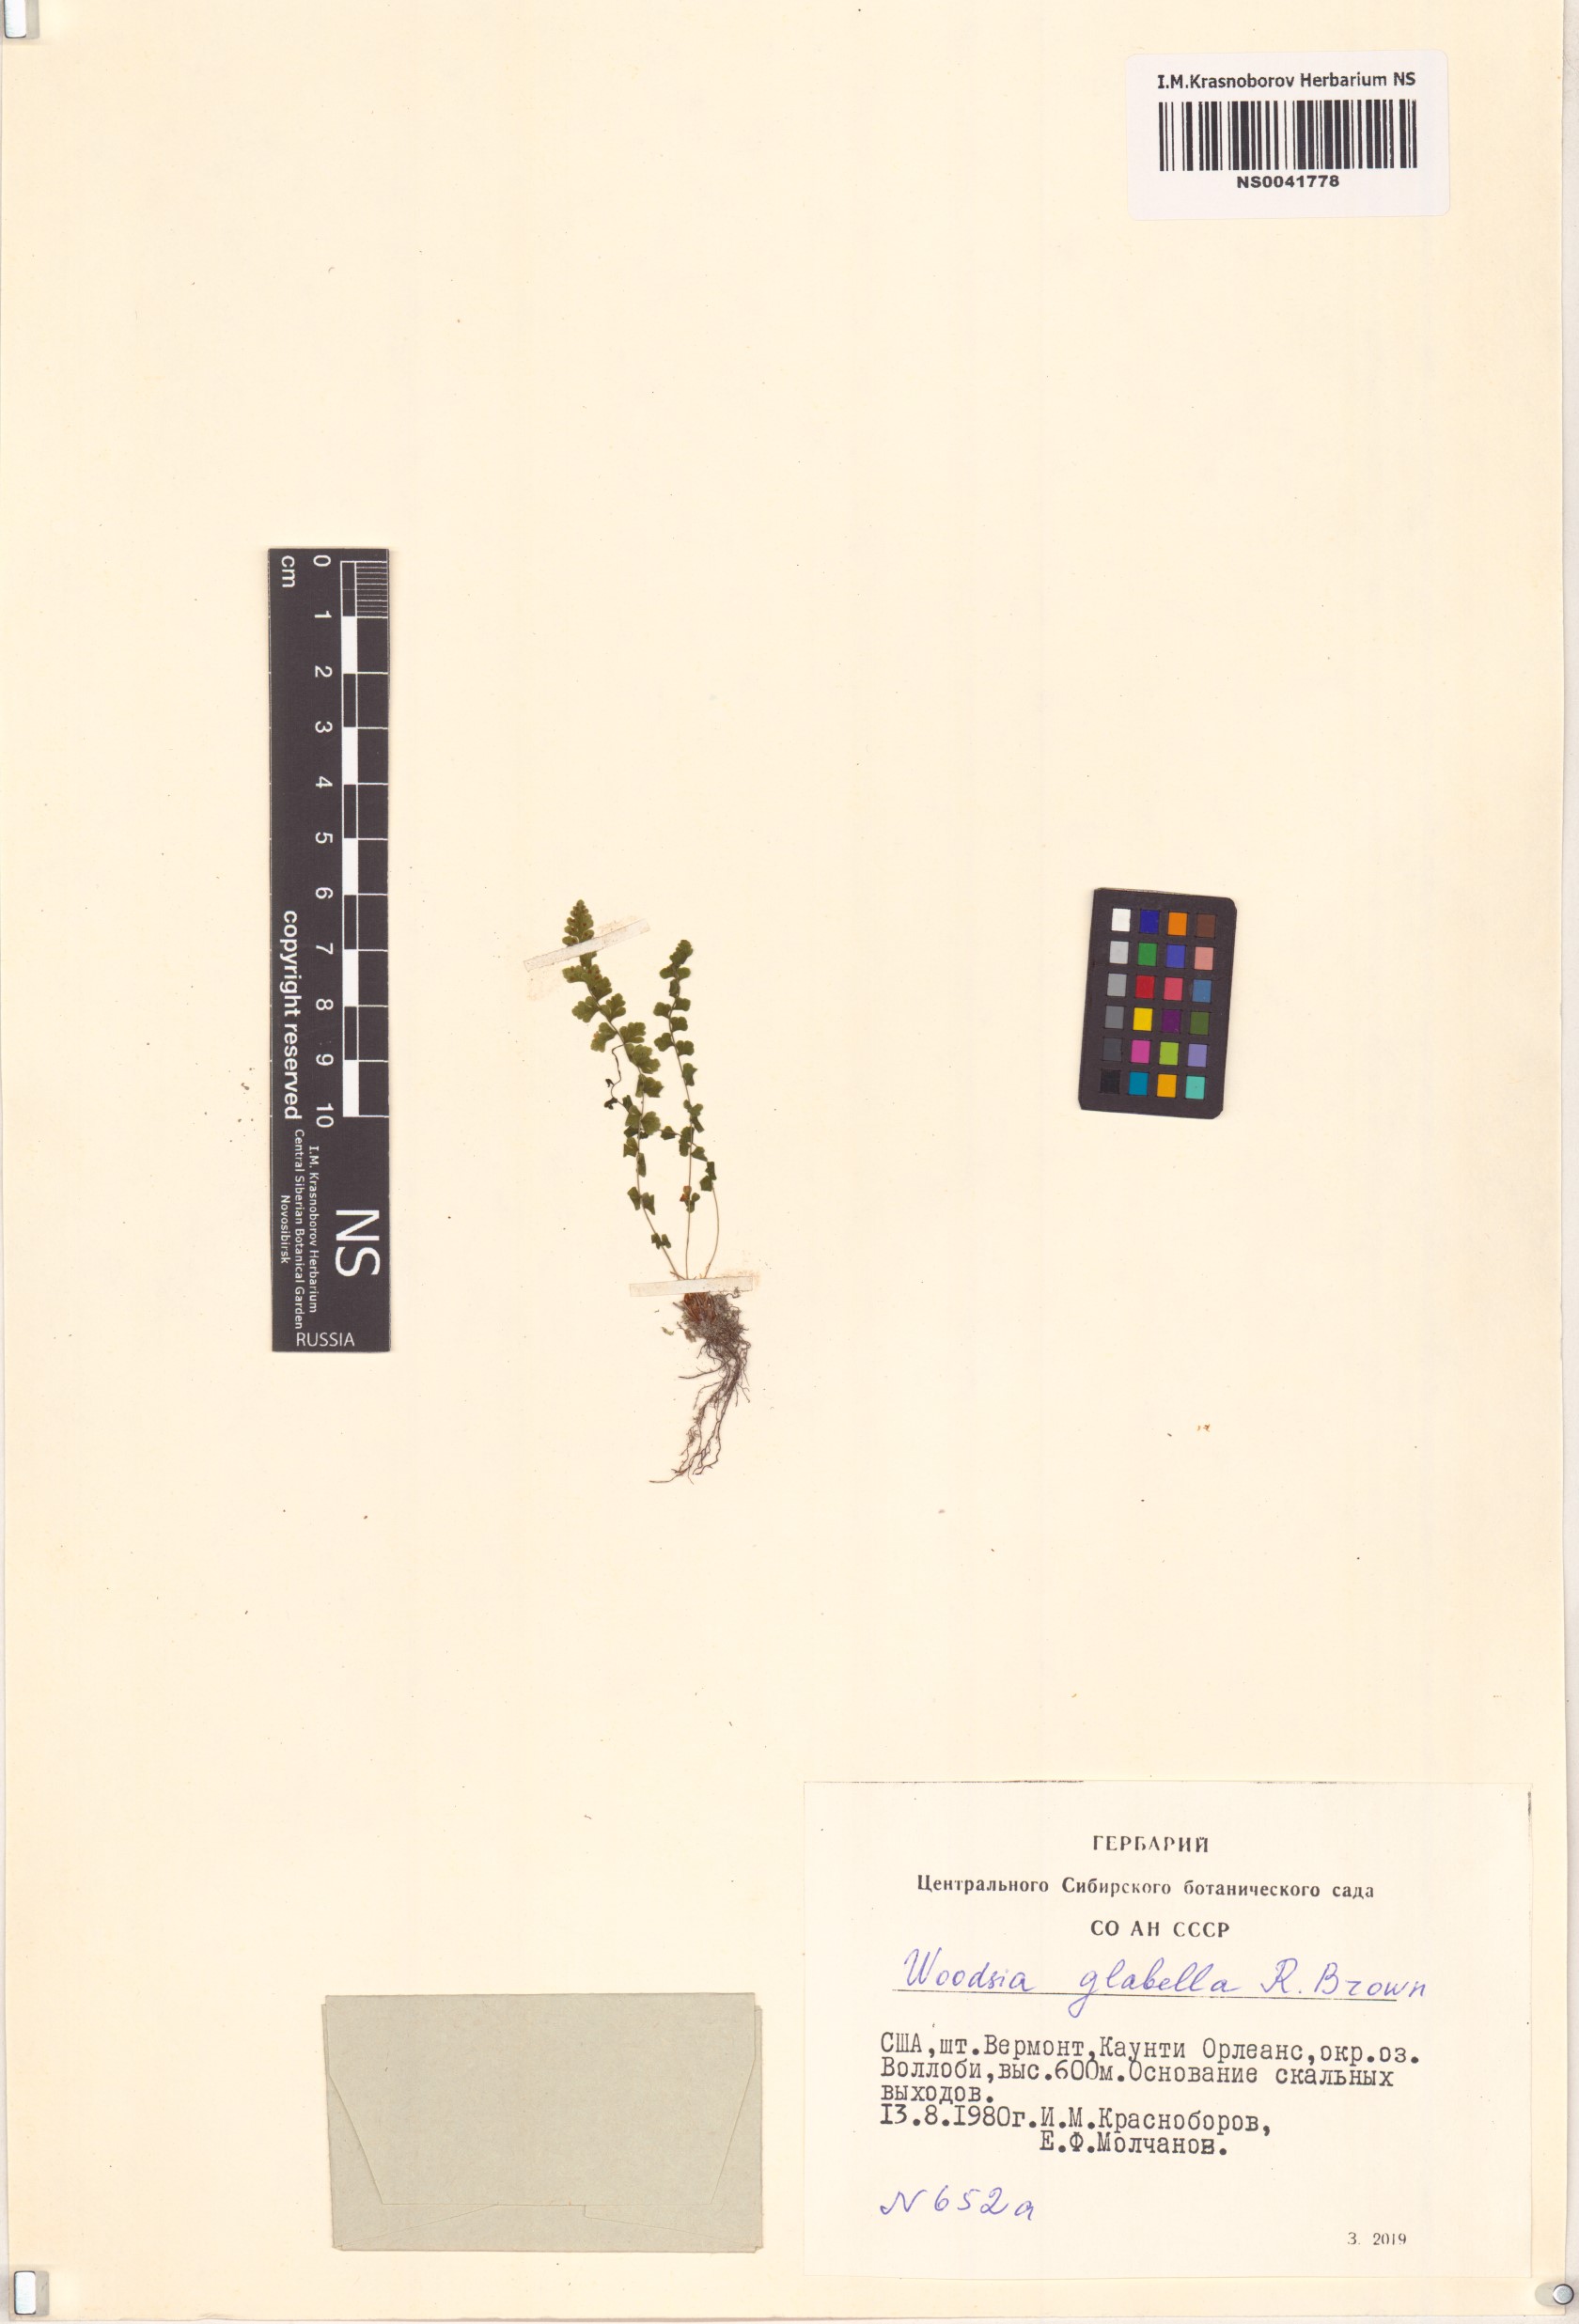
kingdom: Plantae
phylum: Tracheophyta
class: Polypodiopsida
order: Polypodiales
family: Woodsiaceae
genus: Woodsia
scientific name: Woodsia glabella
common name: Smooth woodsia
